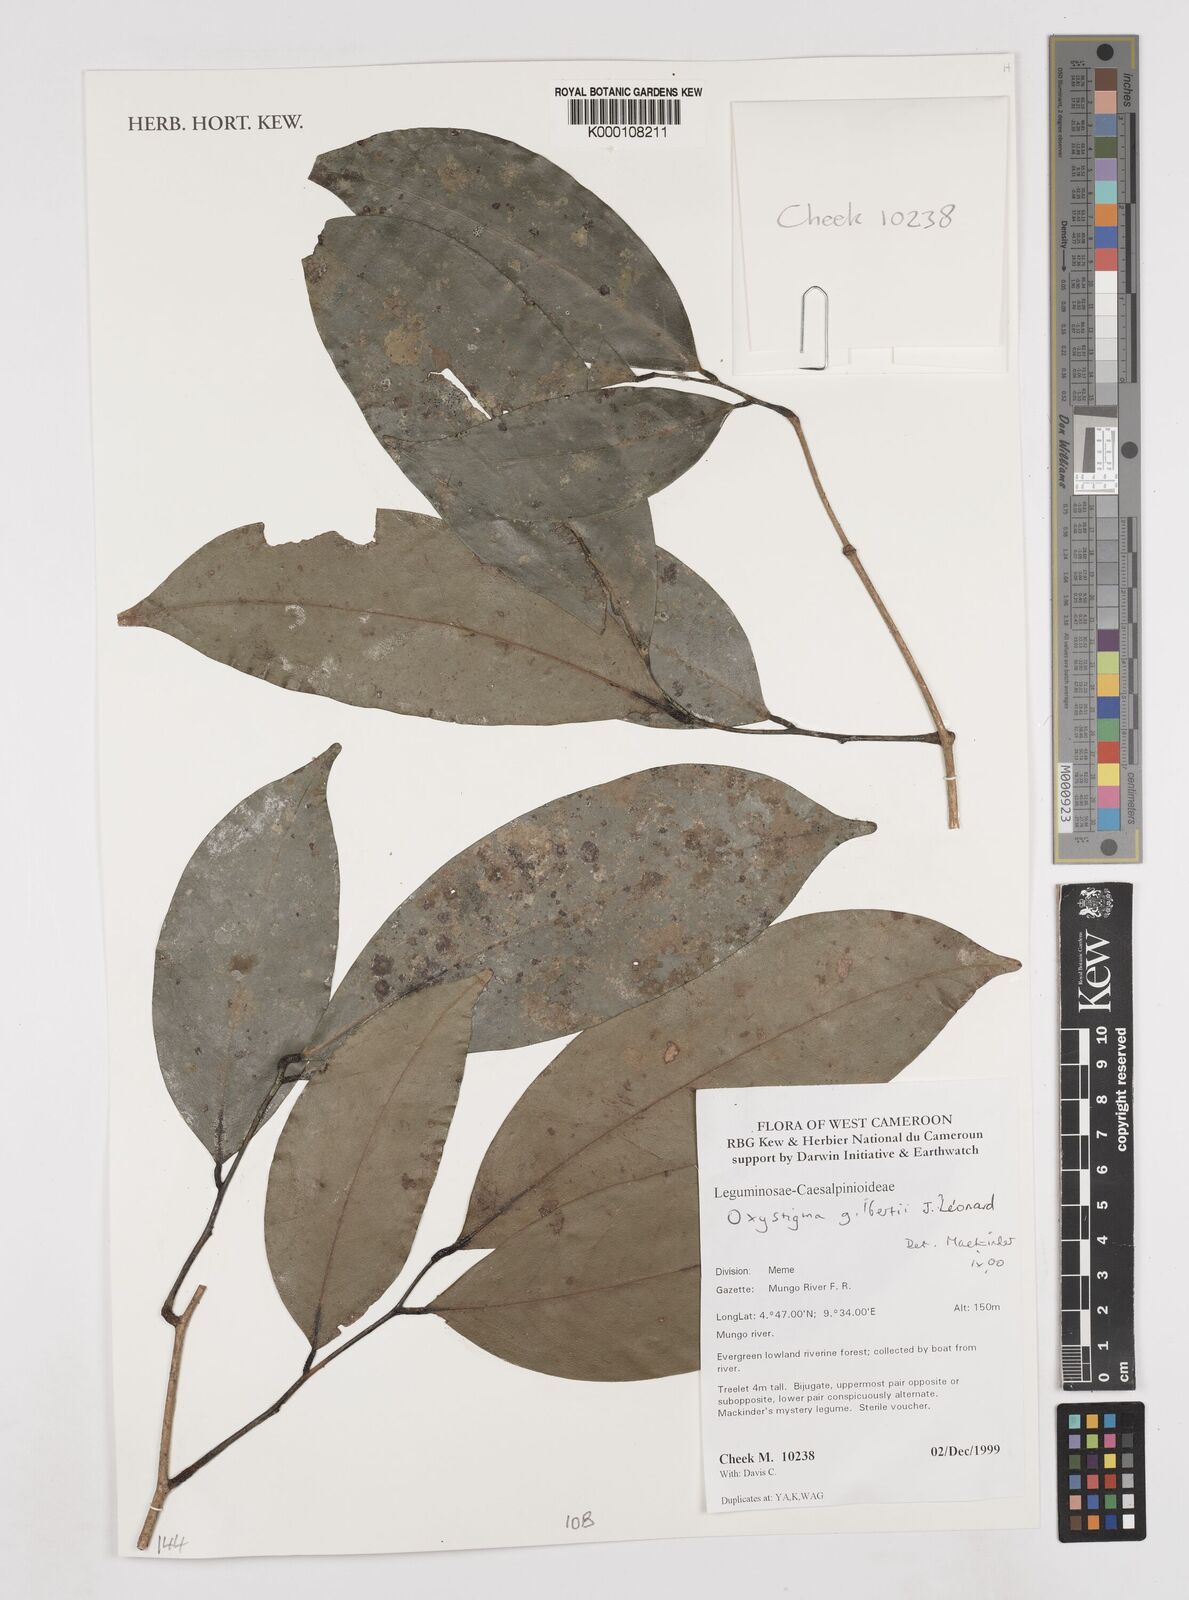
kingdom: Animalia
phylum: Arthropoda
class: Insecta
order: Odonata
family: Heteragrionidae
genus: Oxystigma
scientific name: Oxystigma
